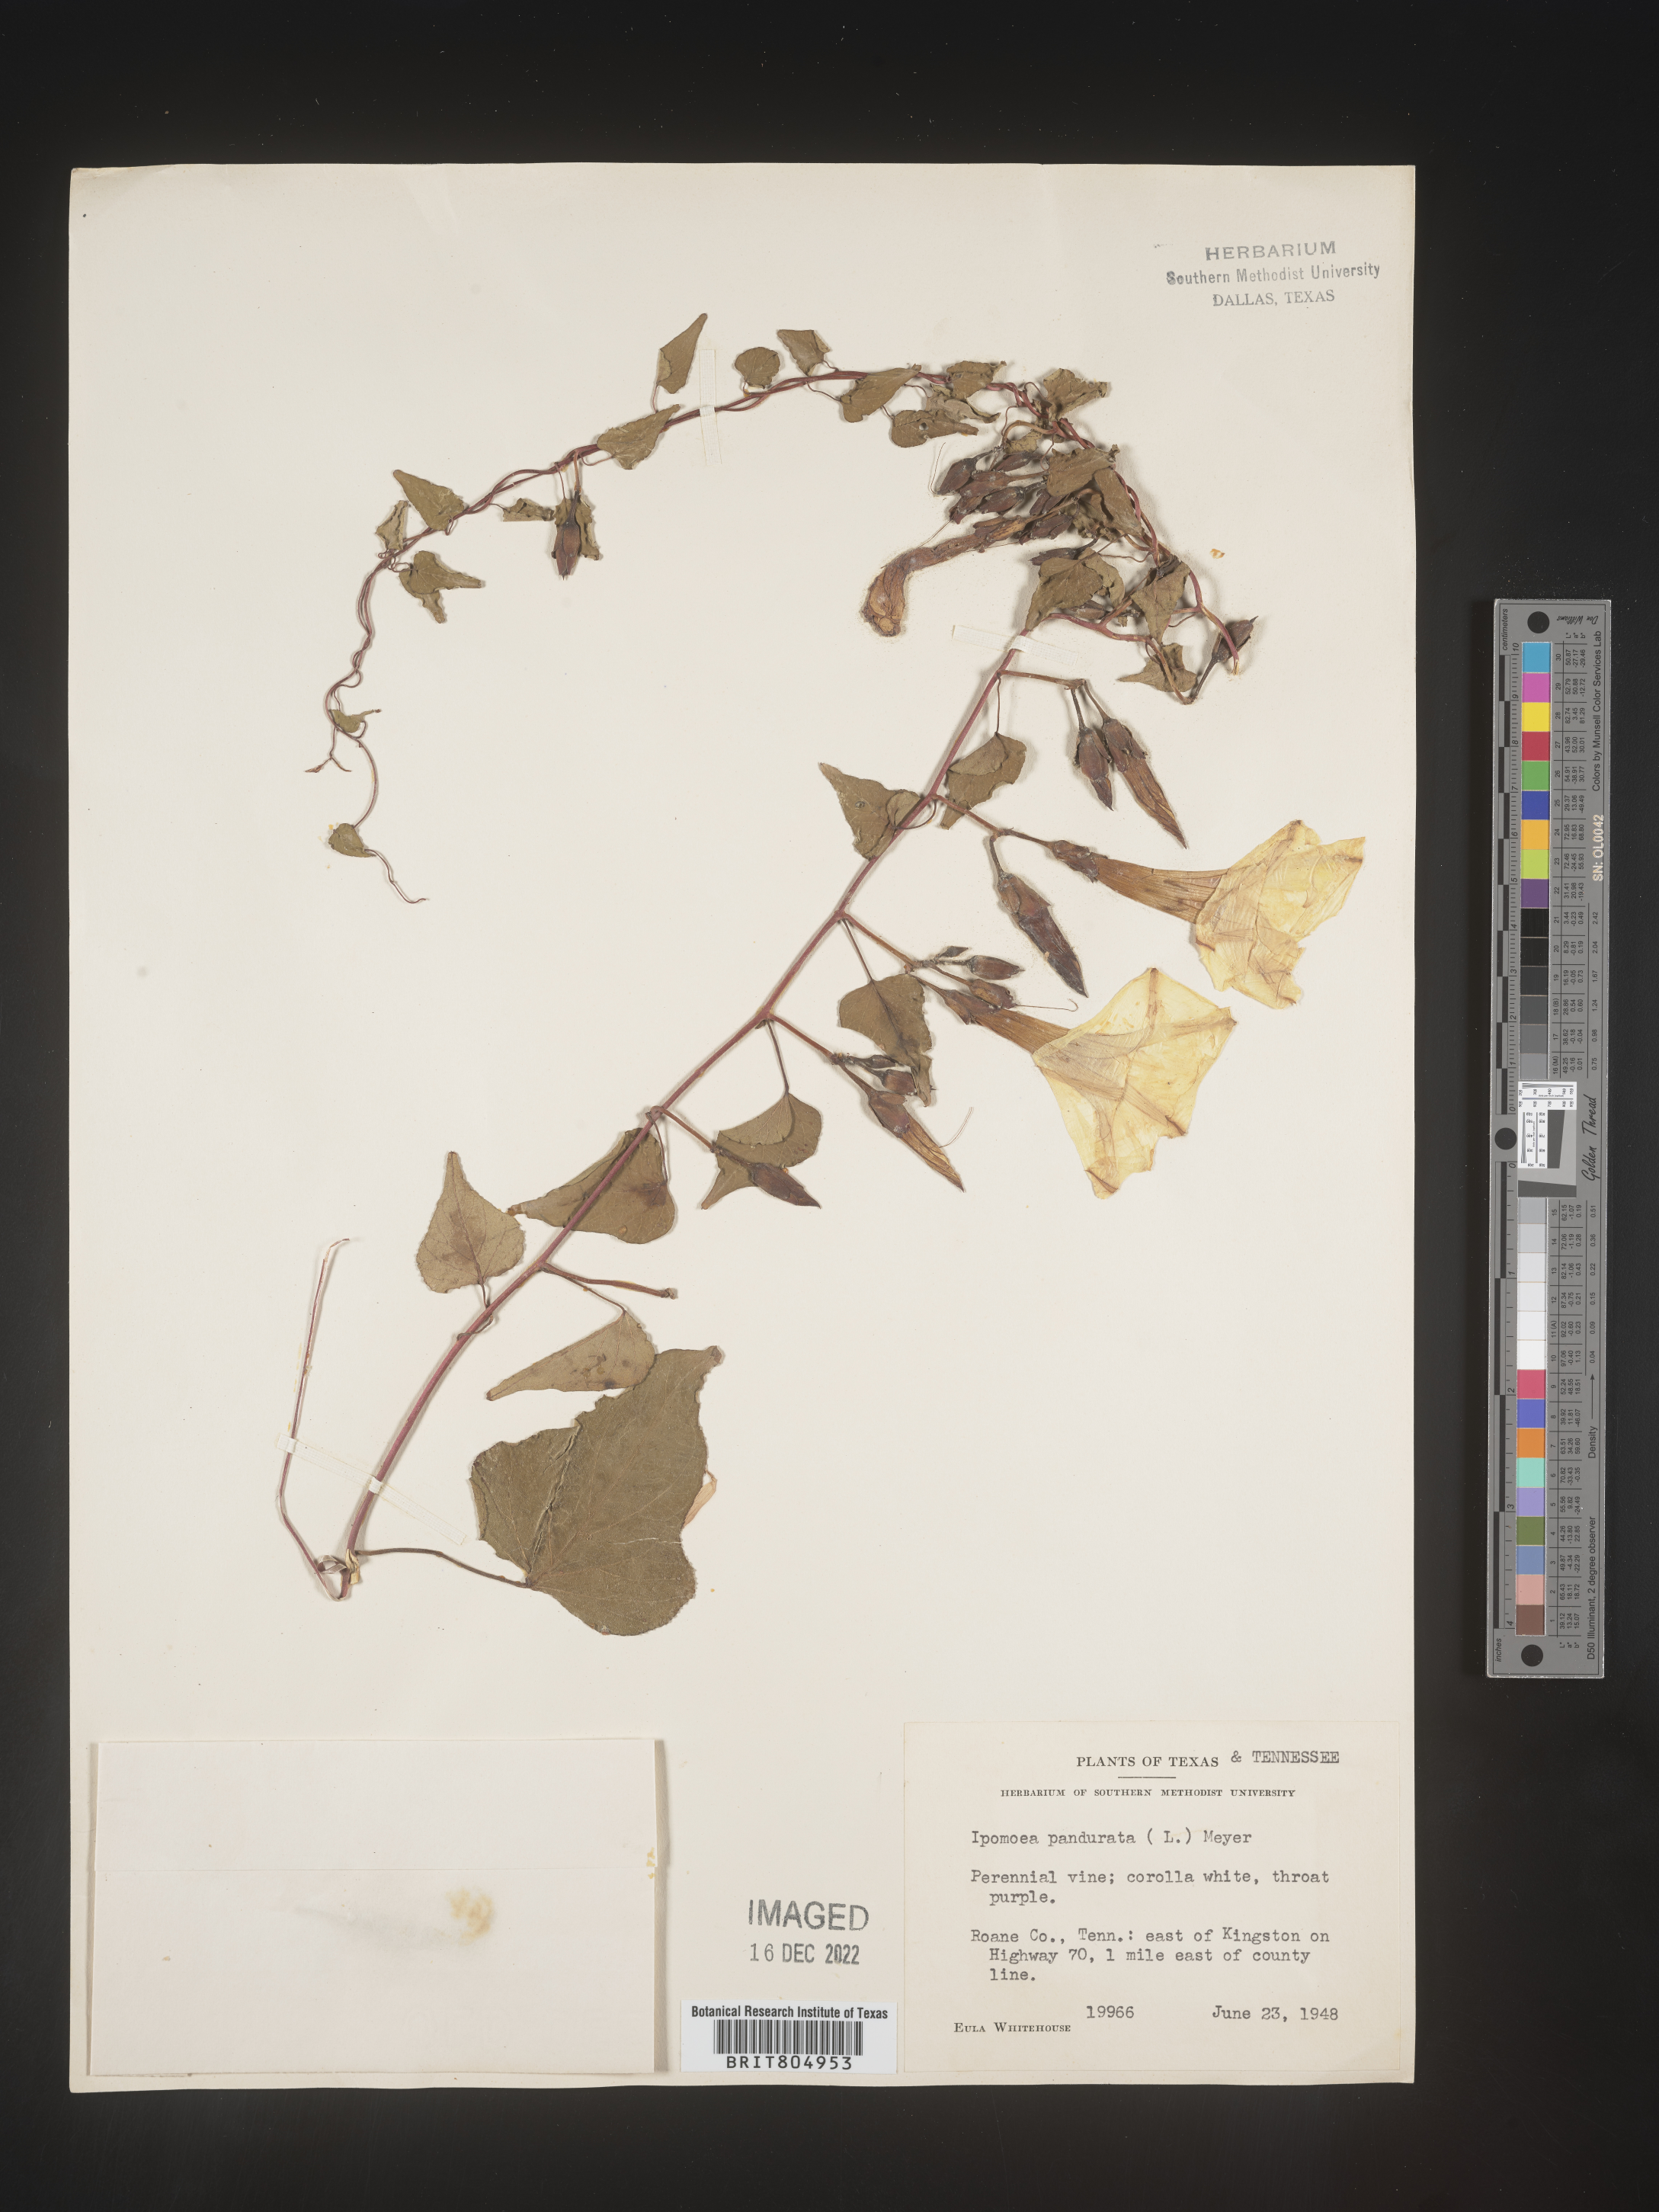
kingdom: Plantae
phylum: Tracheophyta
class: Magnoliopsida
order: Solanales
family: Convolvulaceae
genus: Ipomoea
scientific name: Ipomoea pandurata
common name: Man-of-the-earth
